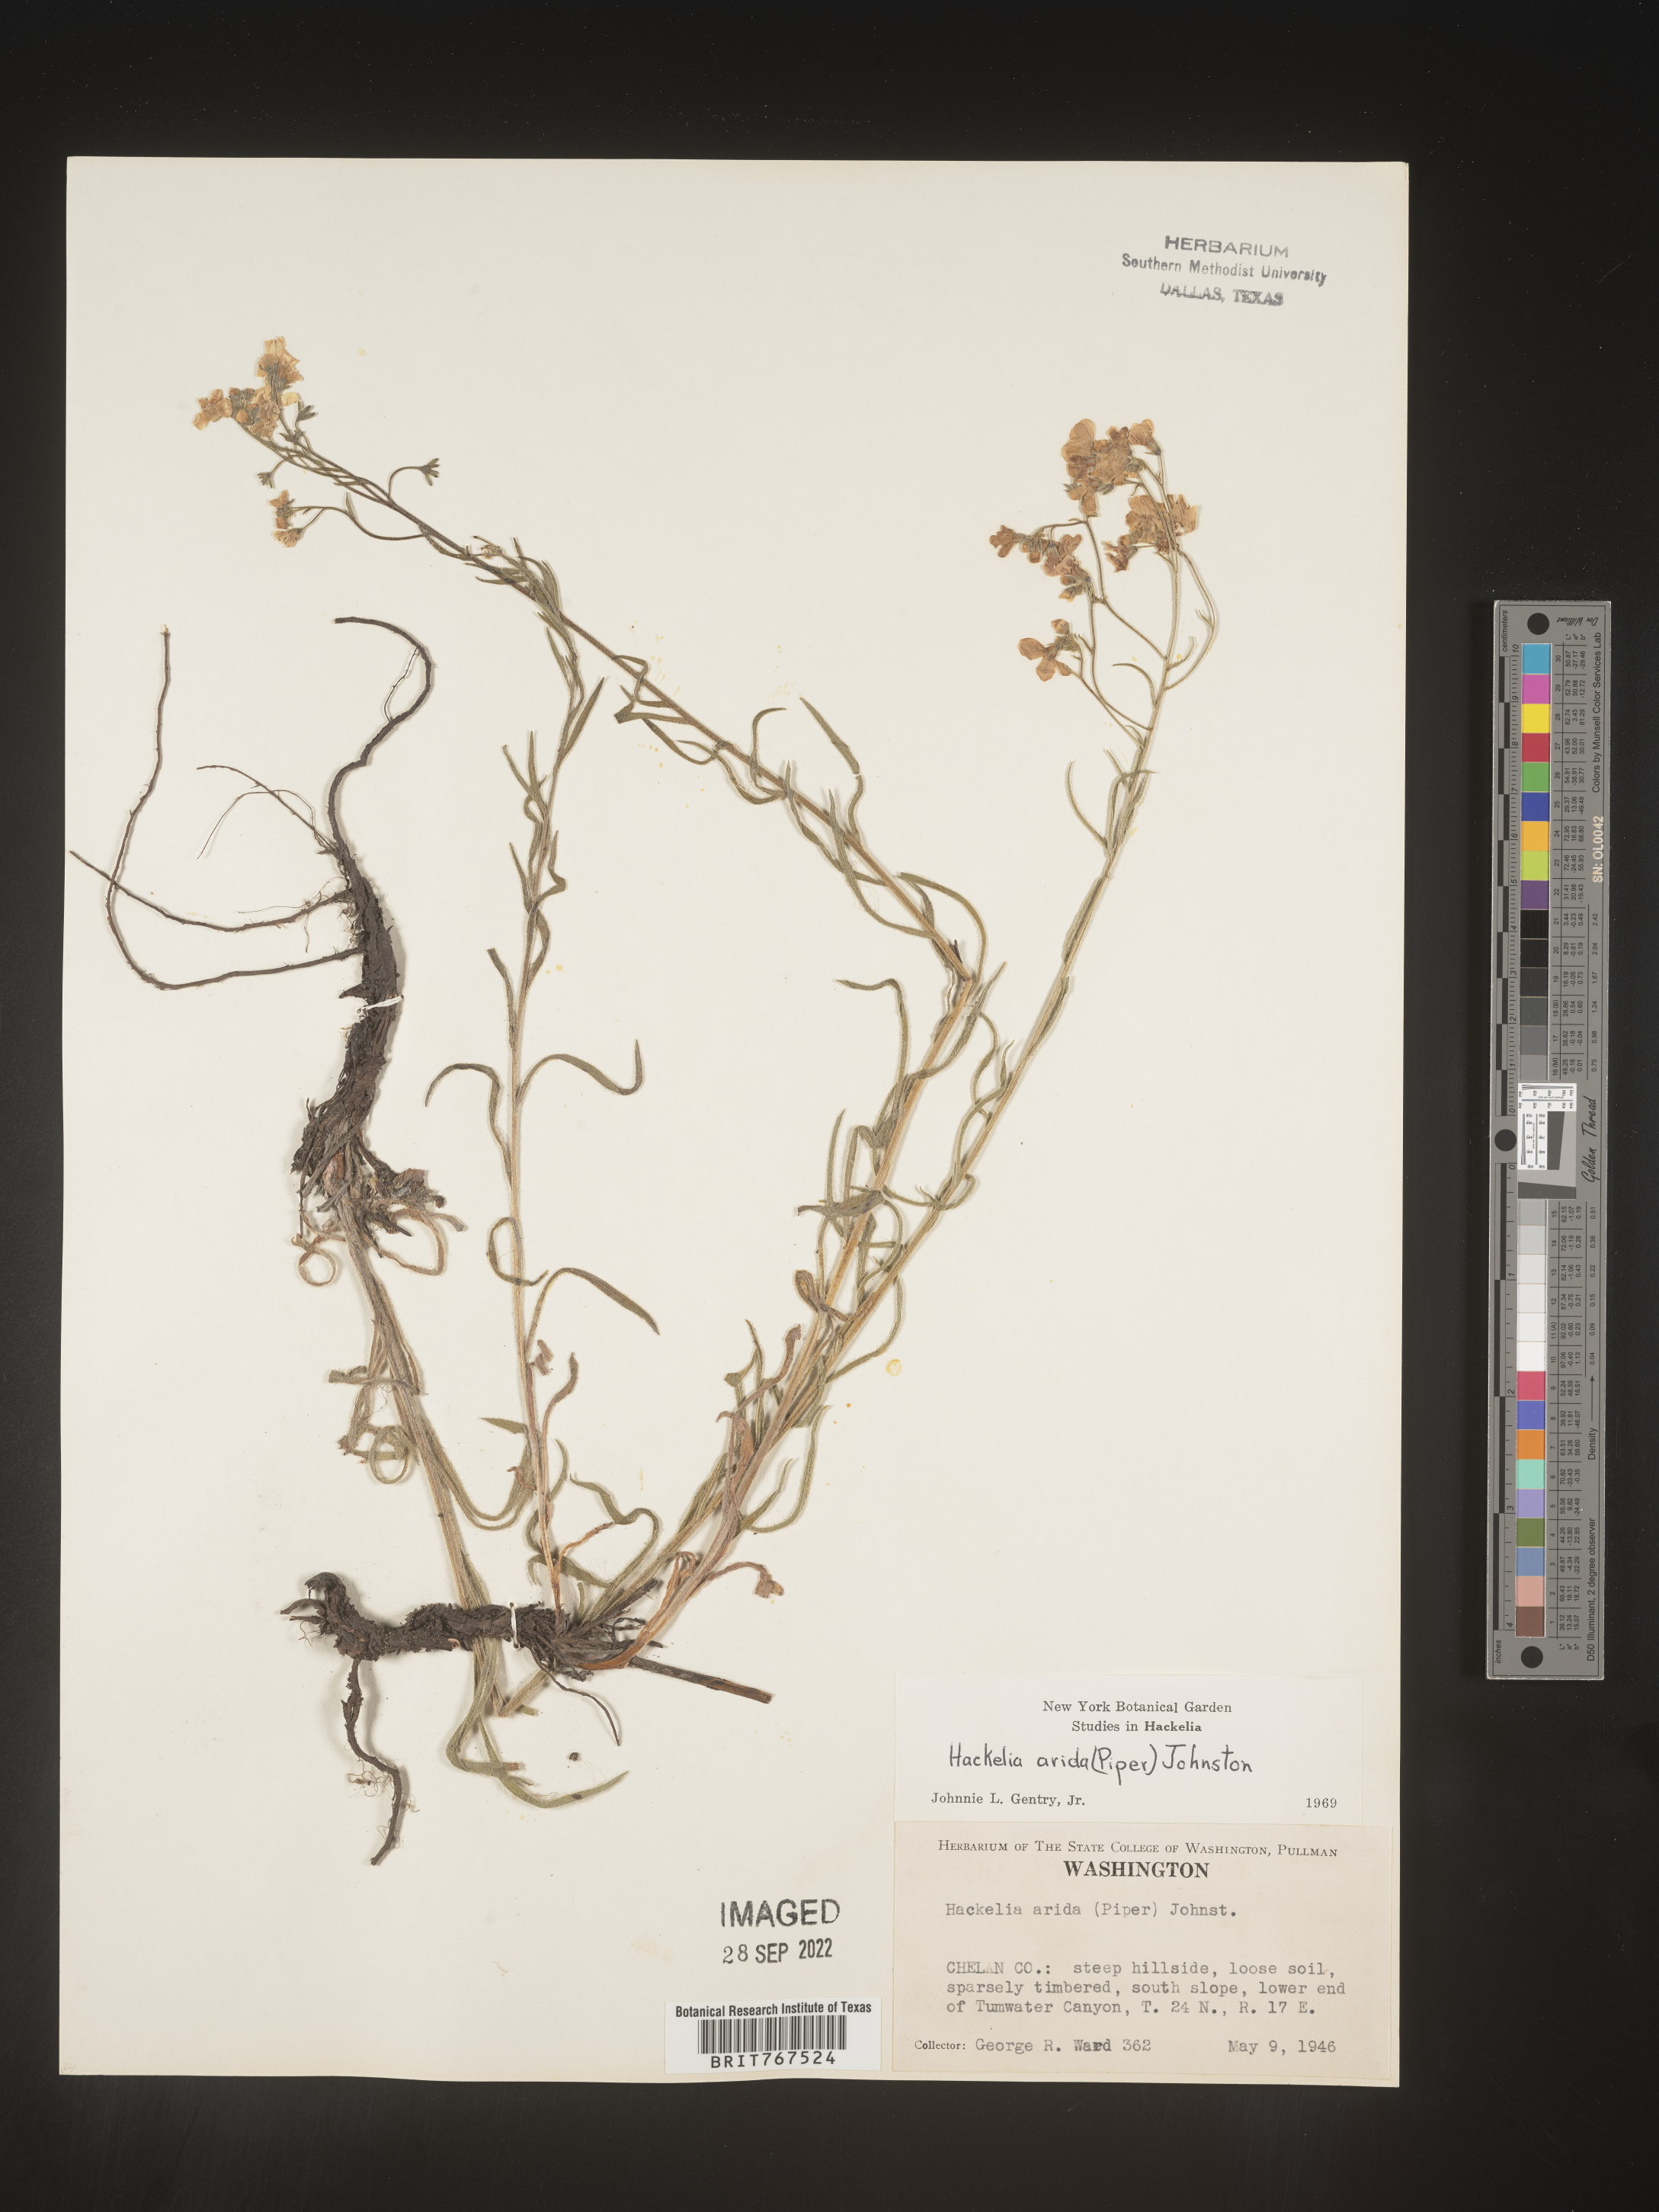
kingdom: Plantae
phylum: Tracheophyta
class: Magnoliopsida
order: Boraginales
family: Boraginaceae
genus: Hackelia
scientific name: Hackelia
